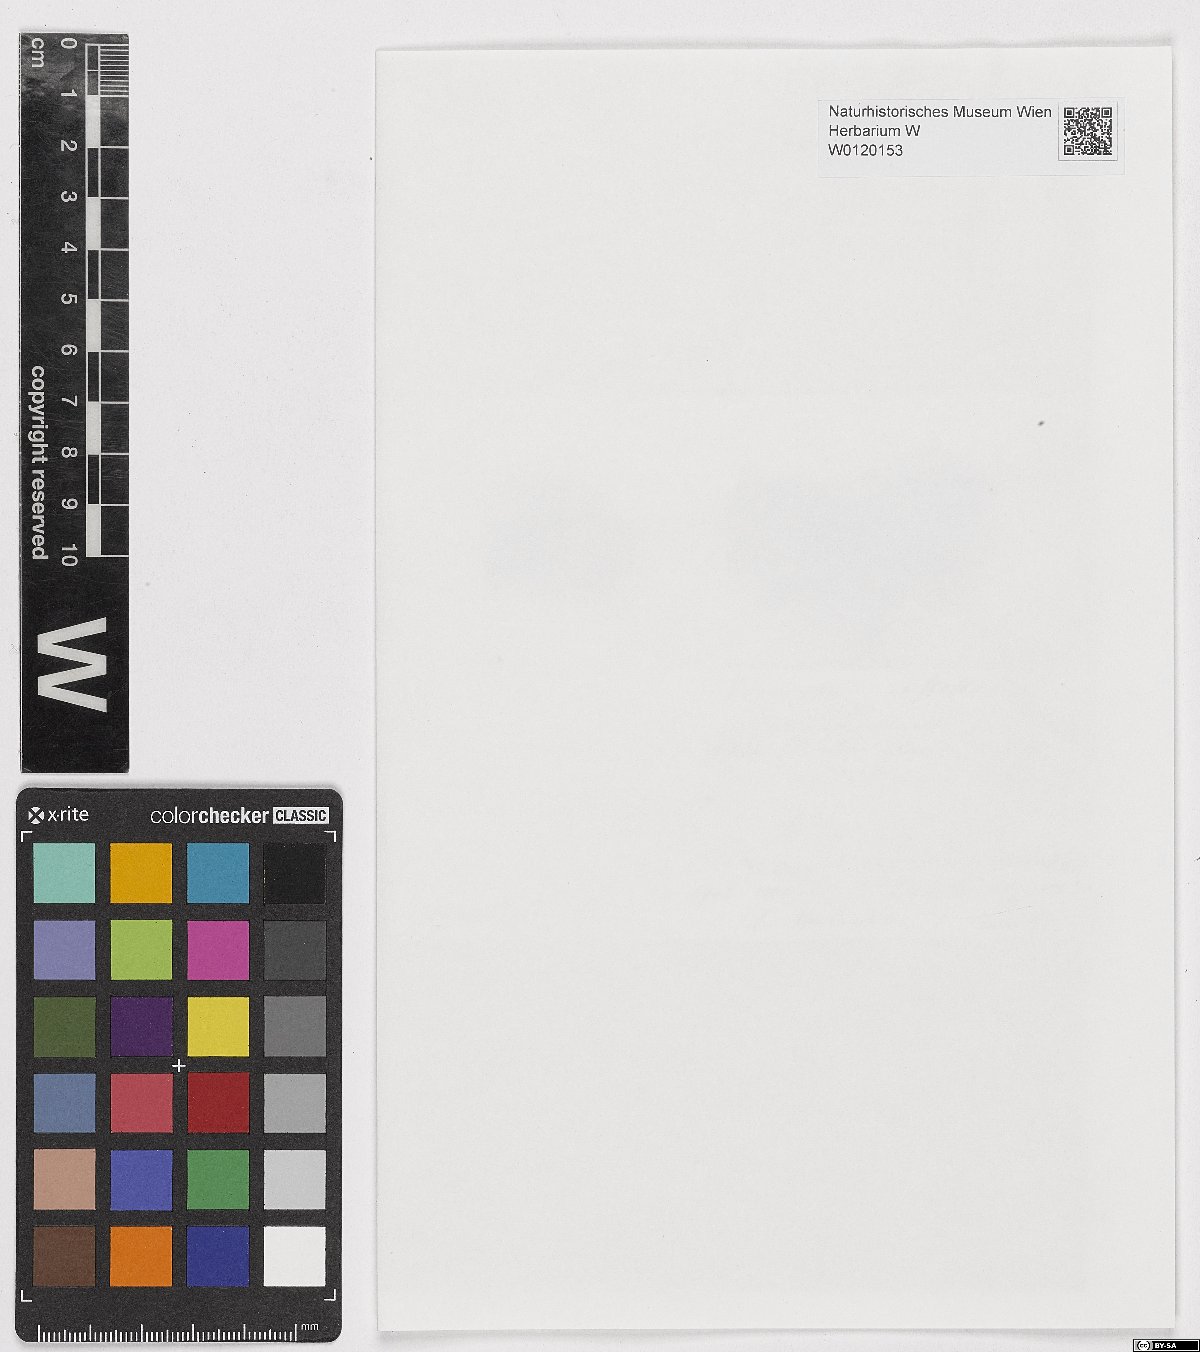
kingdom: Plantae
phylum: Bryophyta
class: Bryopsida
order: Hypnales
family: Plagiotheciaceae
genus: Plagiothecium
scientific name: Plagiothecium
